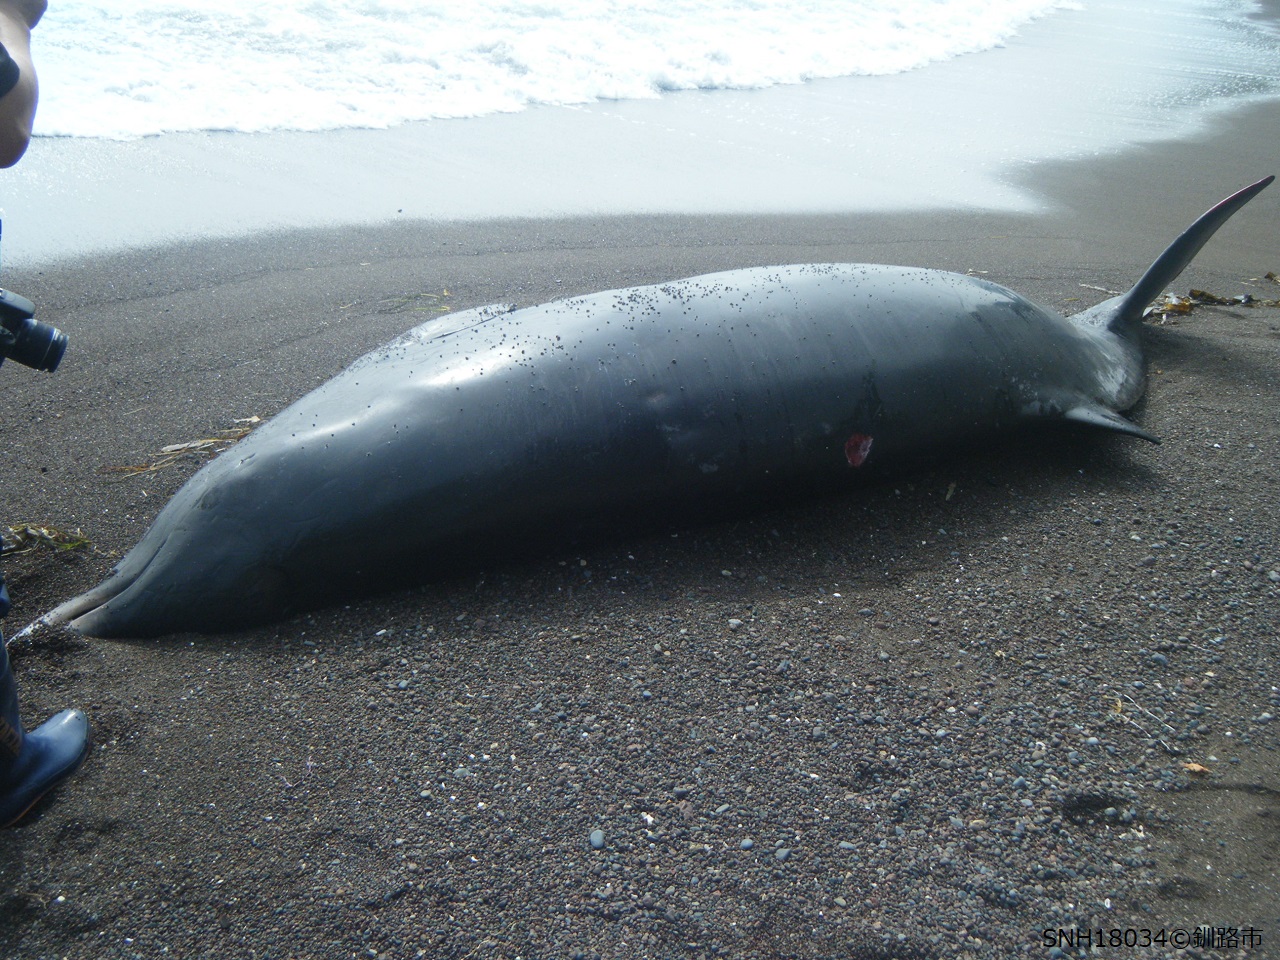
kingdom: Animalia
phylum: Chordata
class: Mammalia
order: Cetacea
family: Hyperoodontidae
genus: Mesoplodon
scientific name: Mesoplodon carlhubbsi
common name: Hubbs' beaked whale
